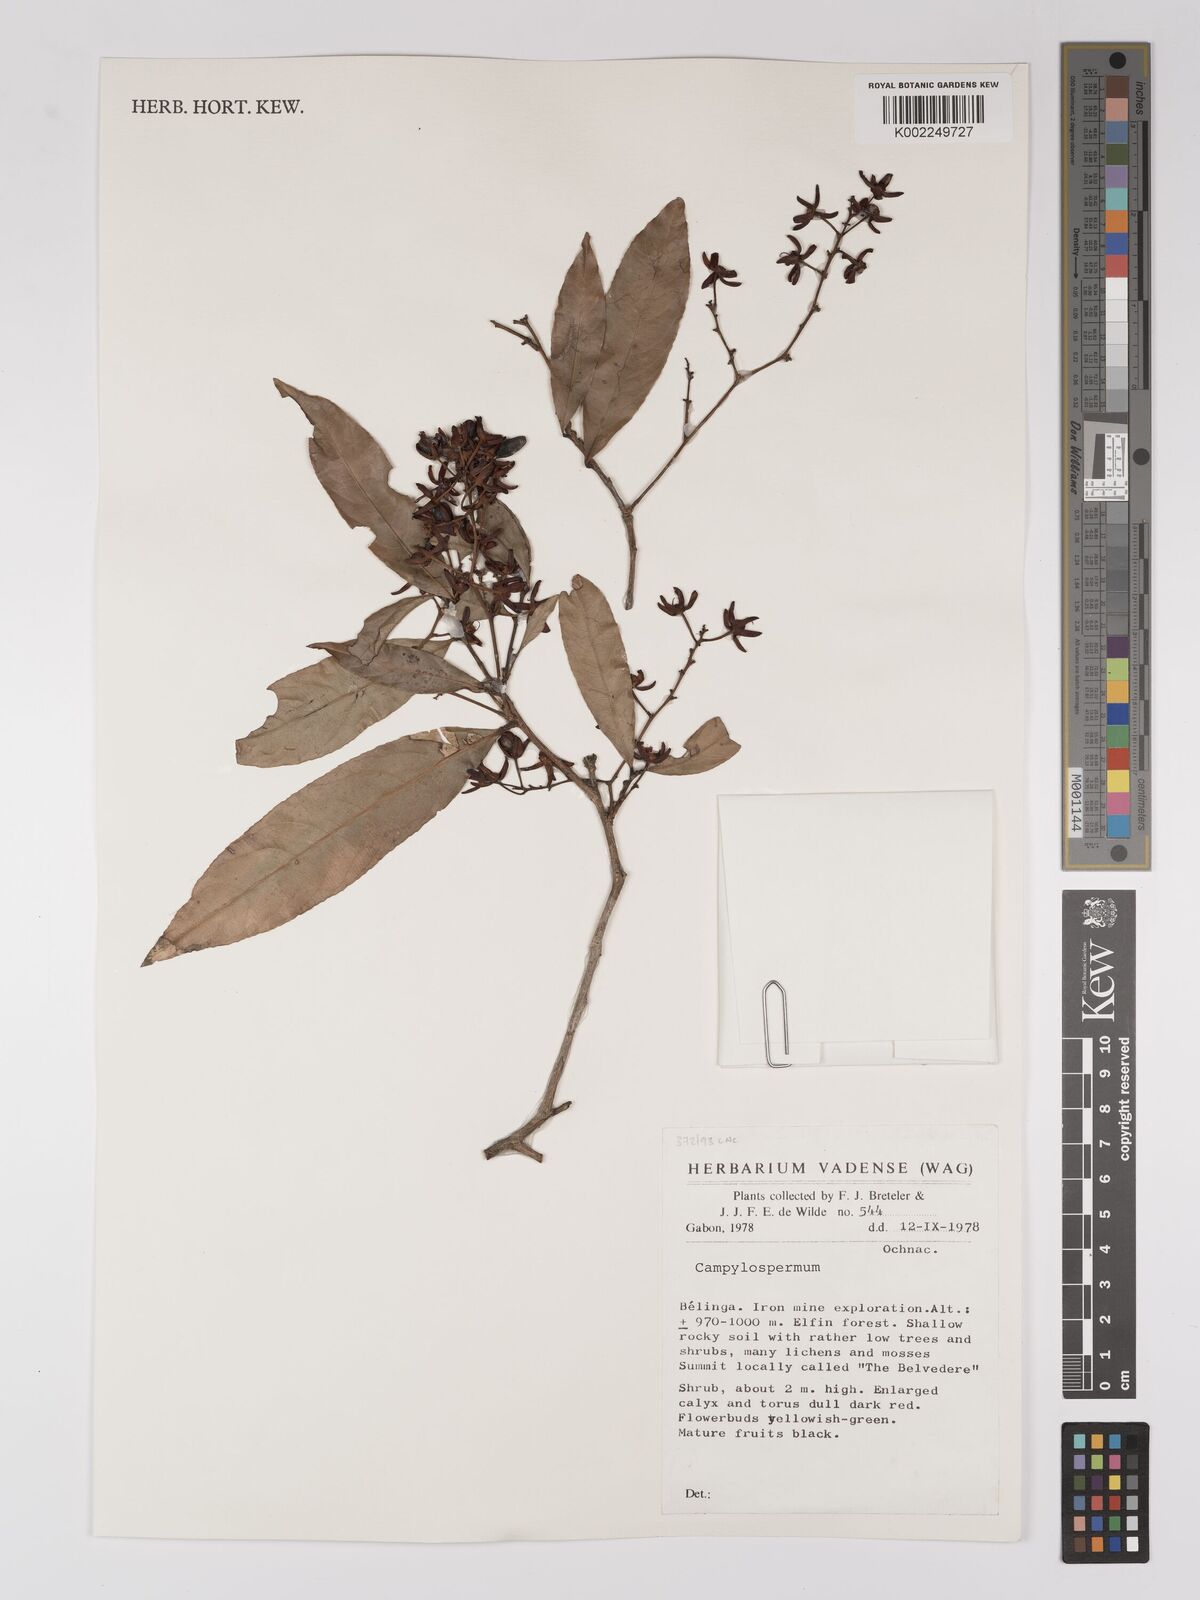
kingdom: Plantae
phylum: Tracheophyta
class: Magnoliopsida
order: Malpighiales
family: Ochnaceae
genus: Campylospermum
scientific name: Campylospermum
